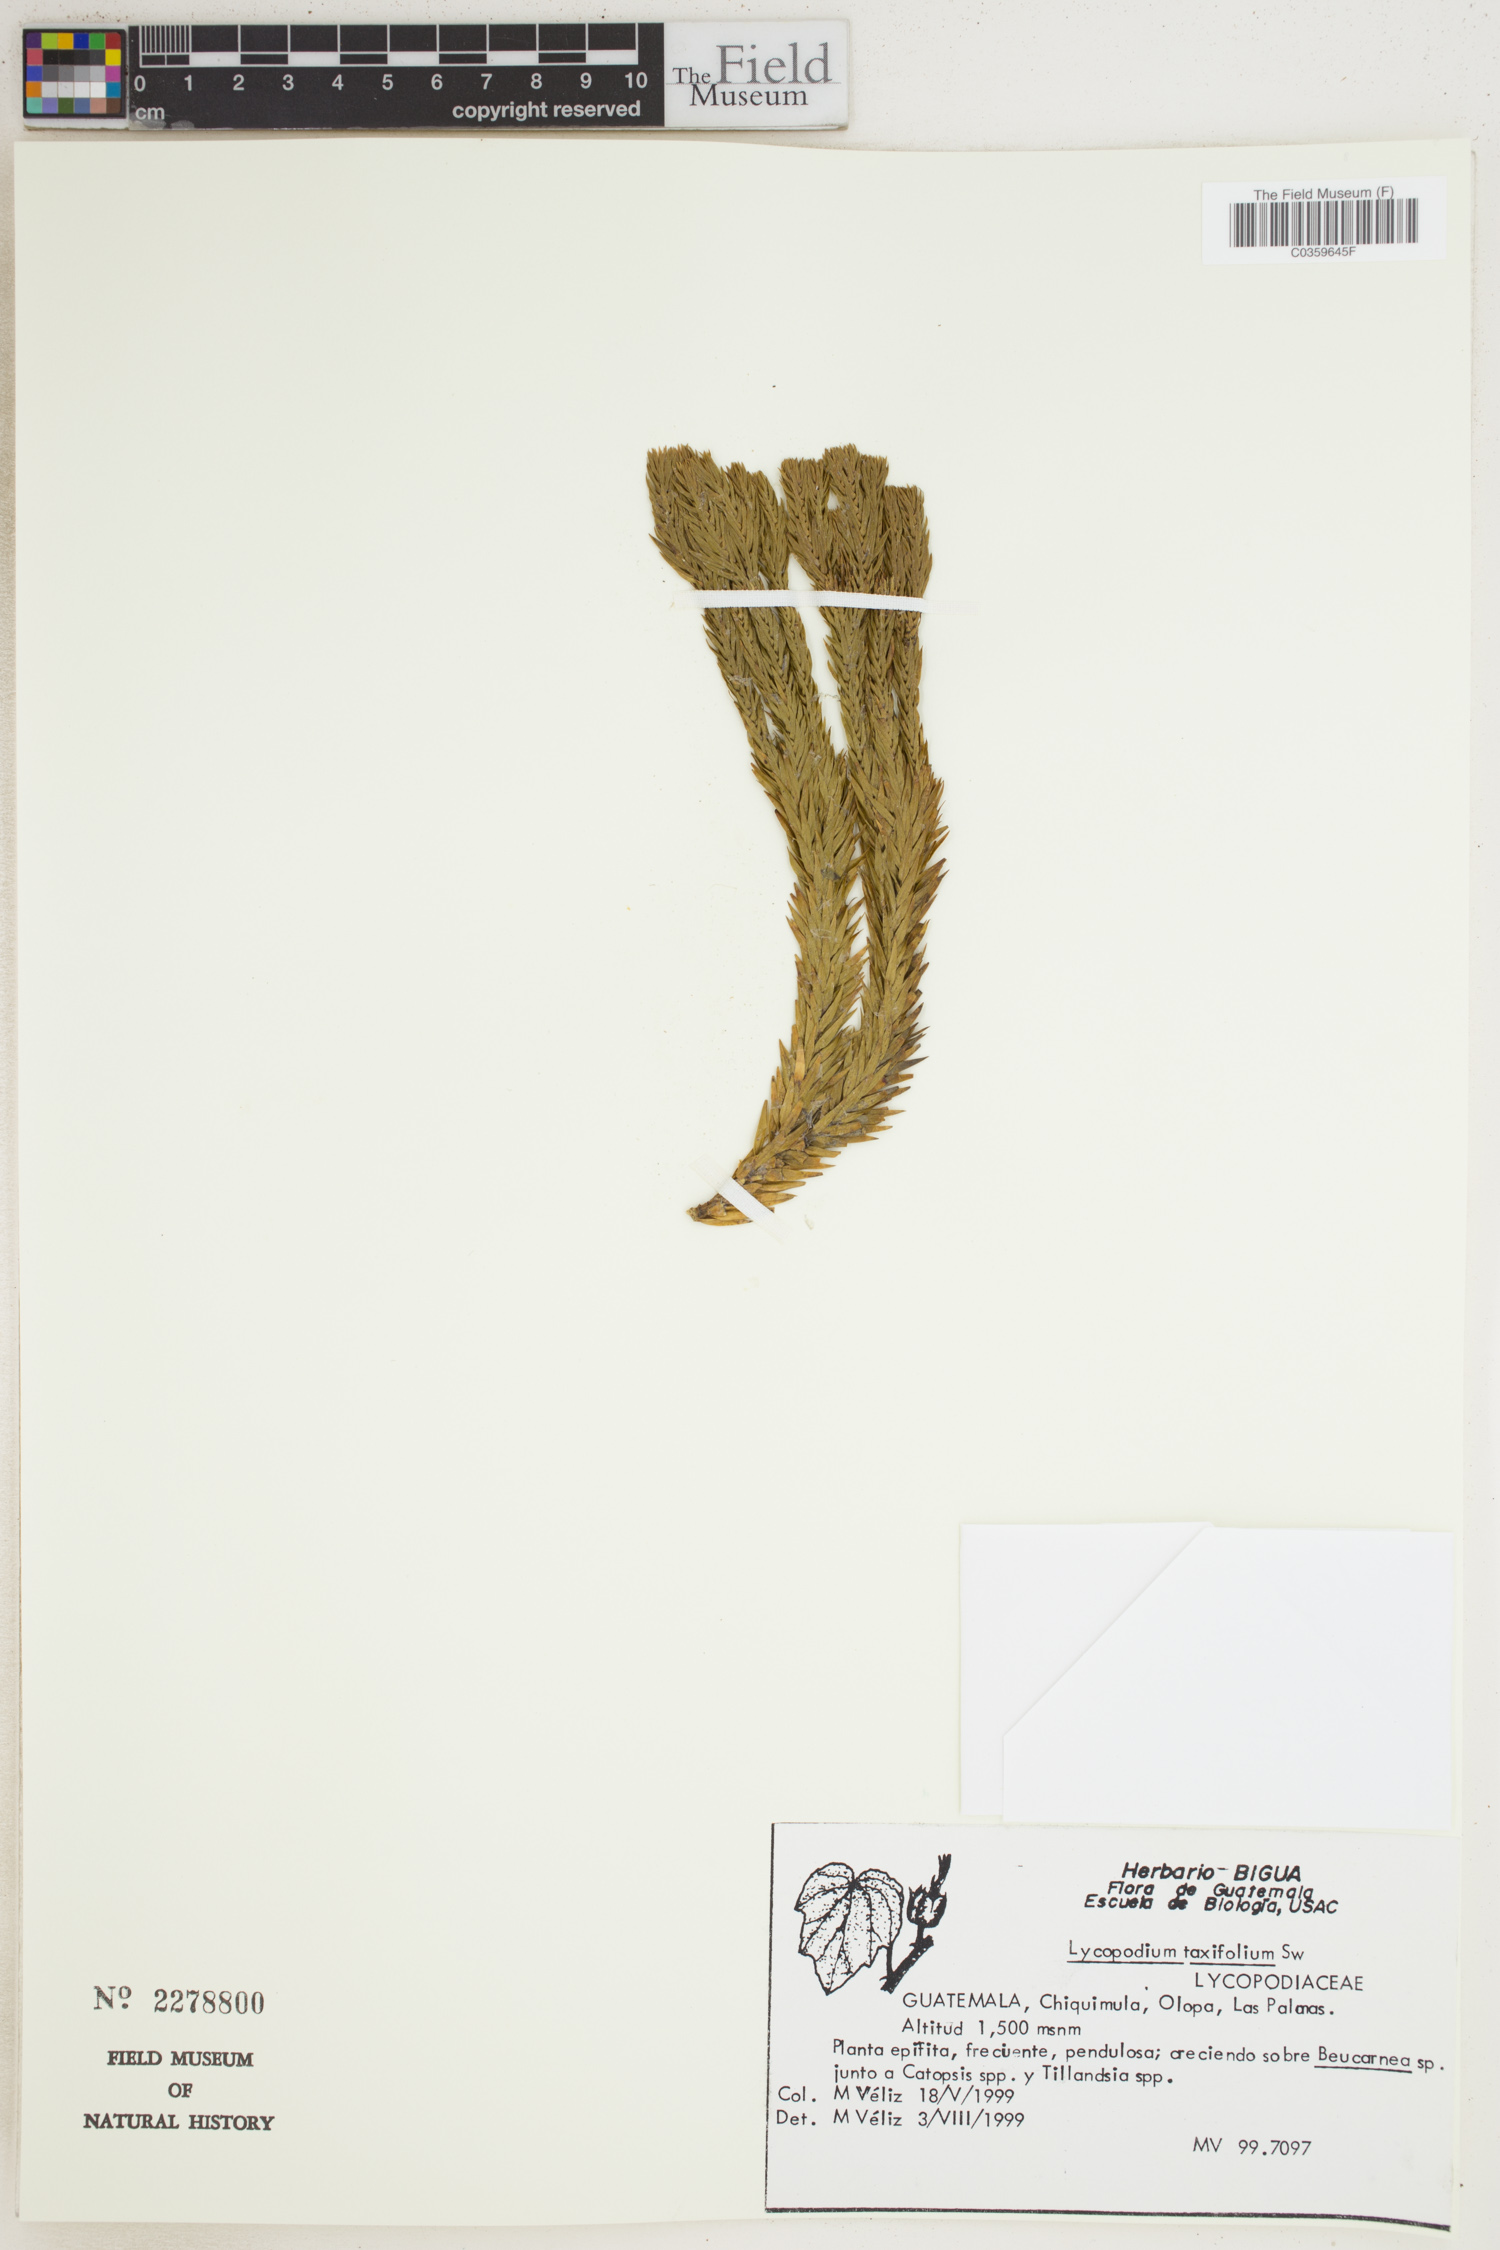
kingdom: Plantae
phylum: Tracheophyta
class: Lycopodiopsida
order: Lycopodiales
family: Lycopodiaceae
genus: Phlegmariurus
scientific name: Phlegmariurus taxifolius
